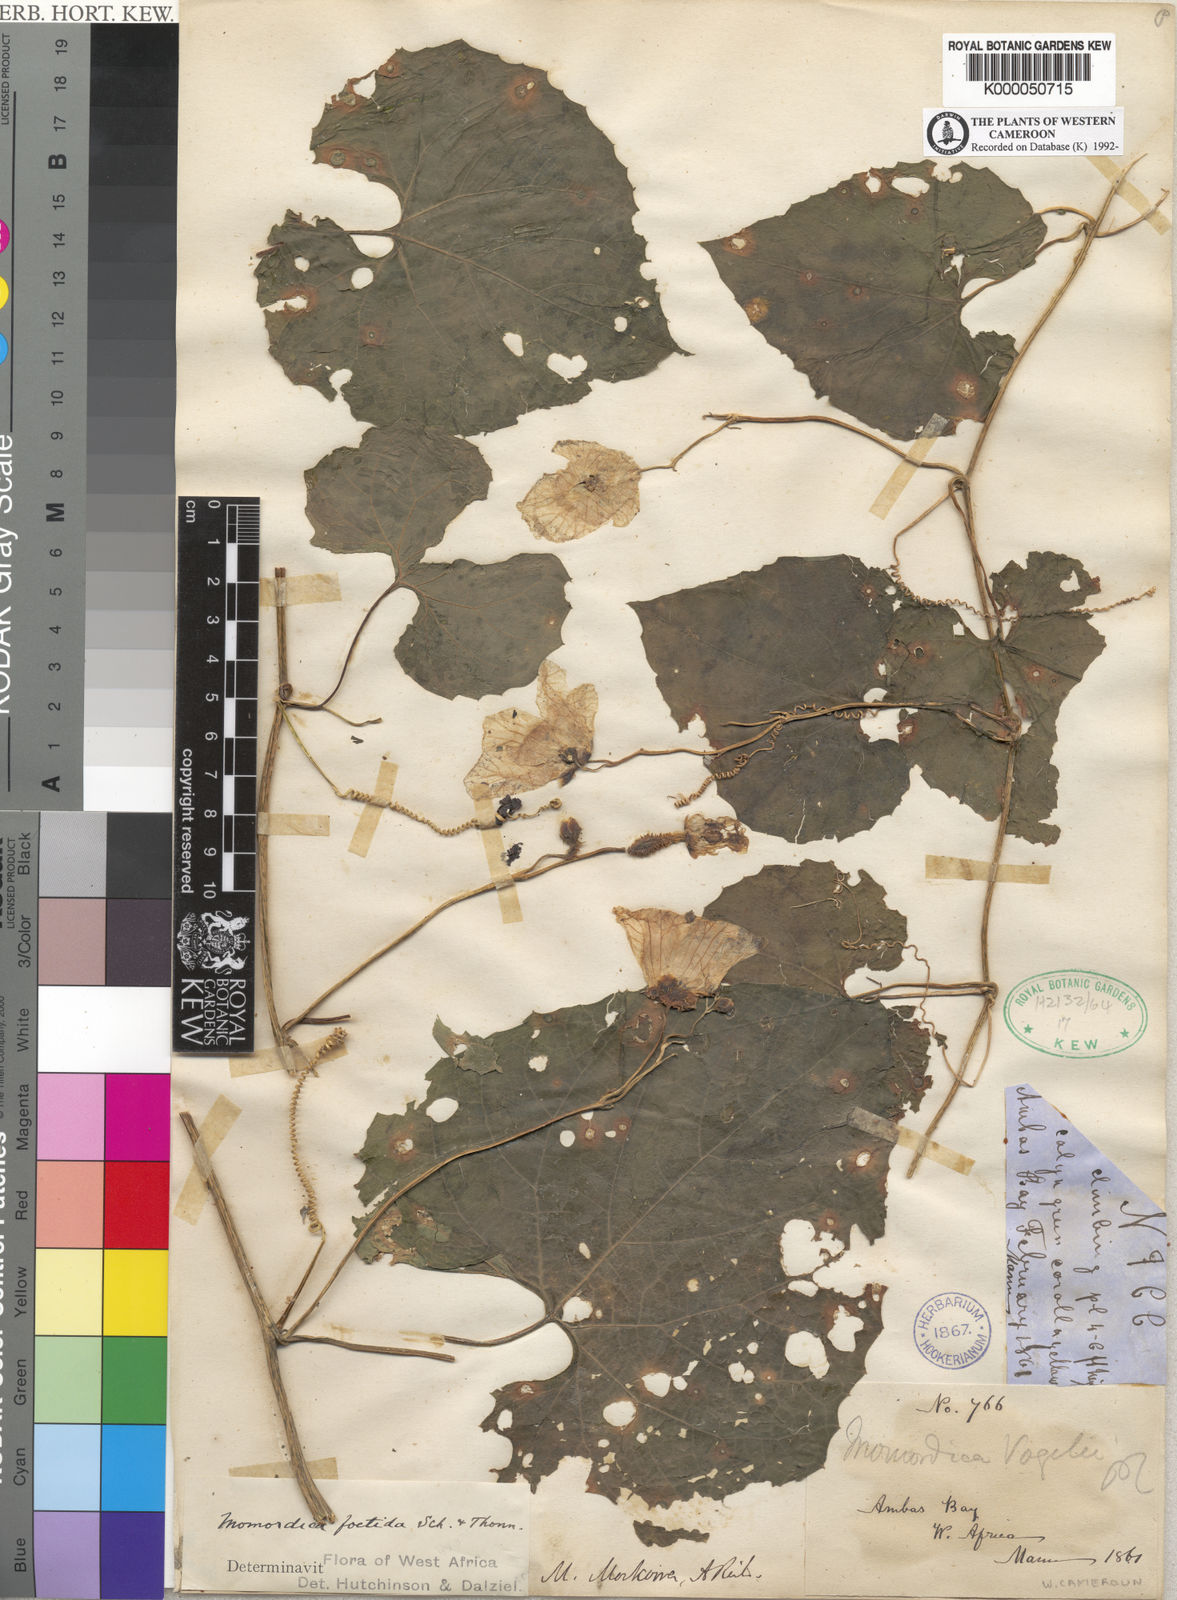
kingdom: Plantae
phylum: Tracheophyta
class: Magnoliopsida
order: Cucurbitales
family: Cucurbitaceae
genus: Momordica
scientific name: Momordica foetida
